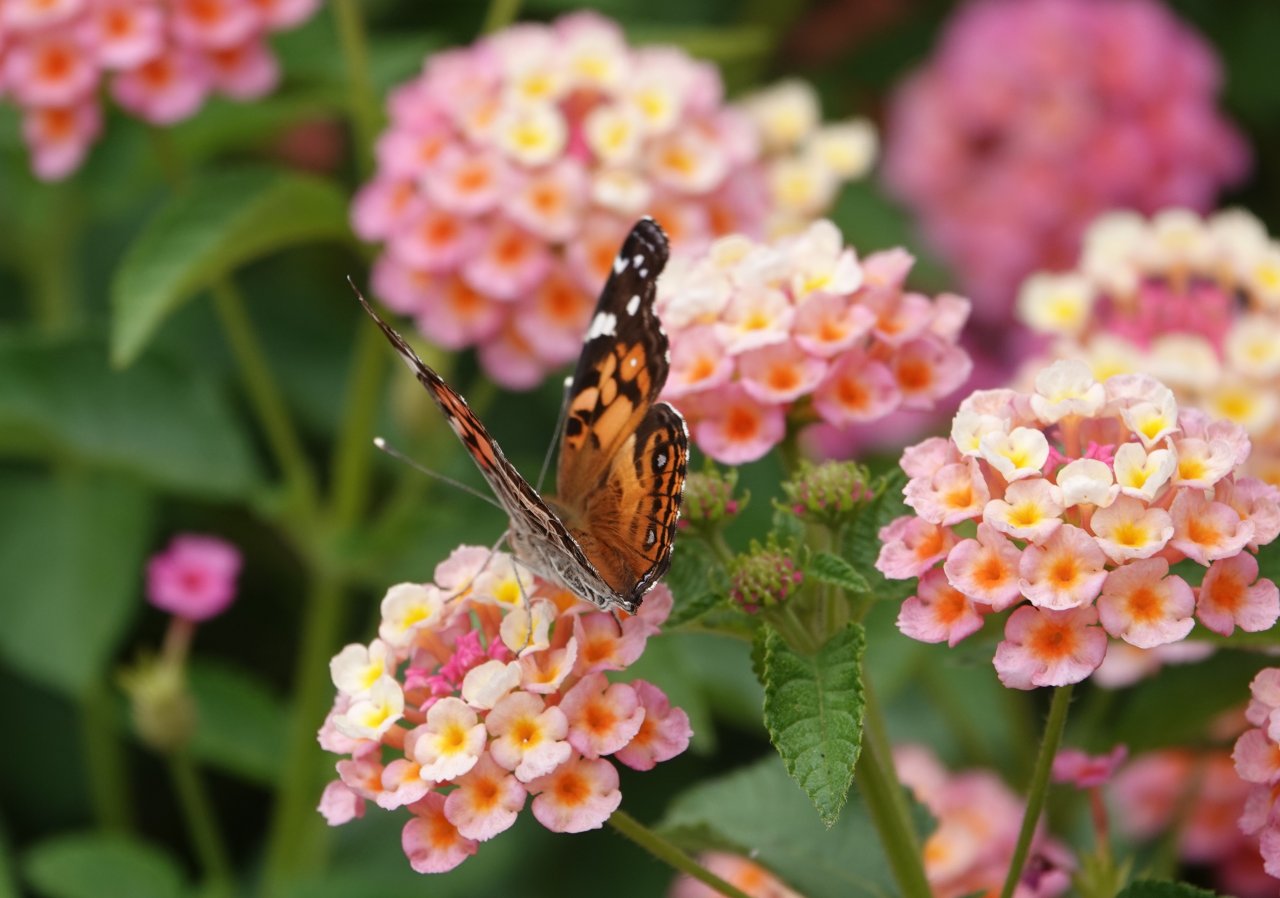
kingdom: Animalia
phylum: Arthropoda
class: Insecta
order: Lepidoptera
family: Nymphalidae
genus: Vanessa
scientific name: Vanessa virginiensis
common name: American Lady
